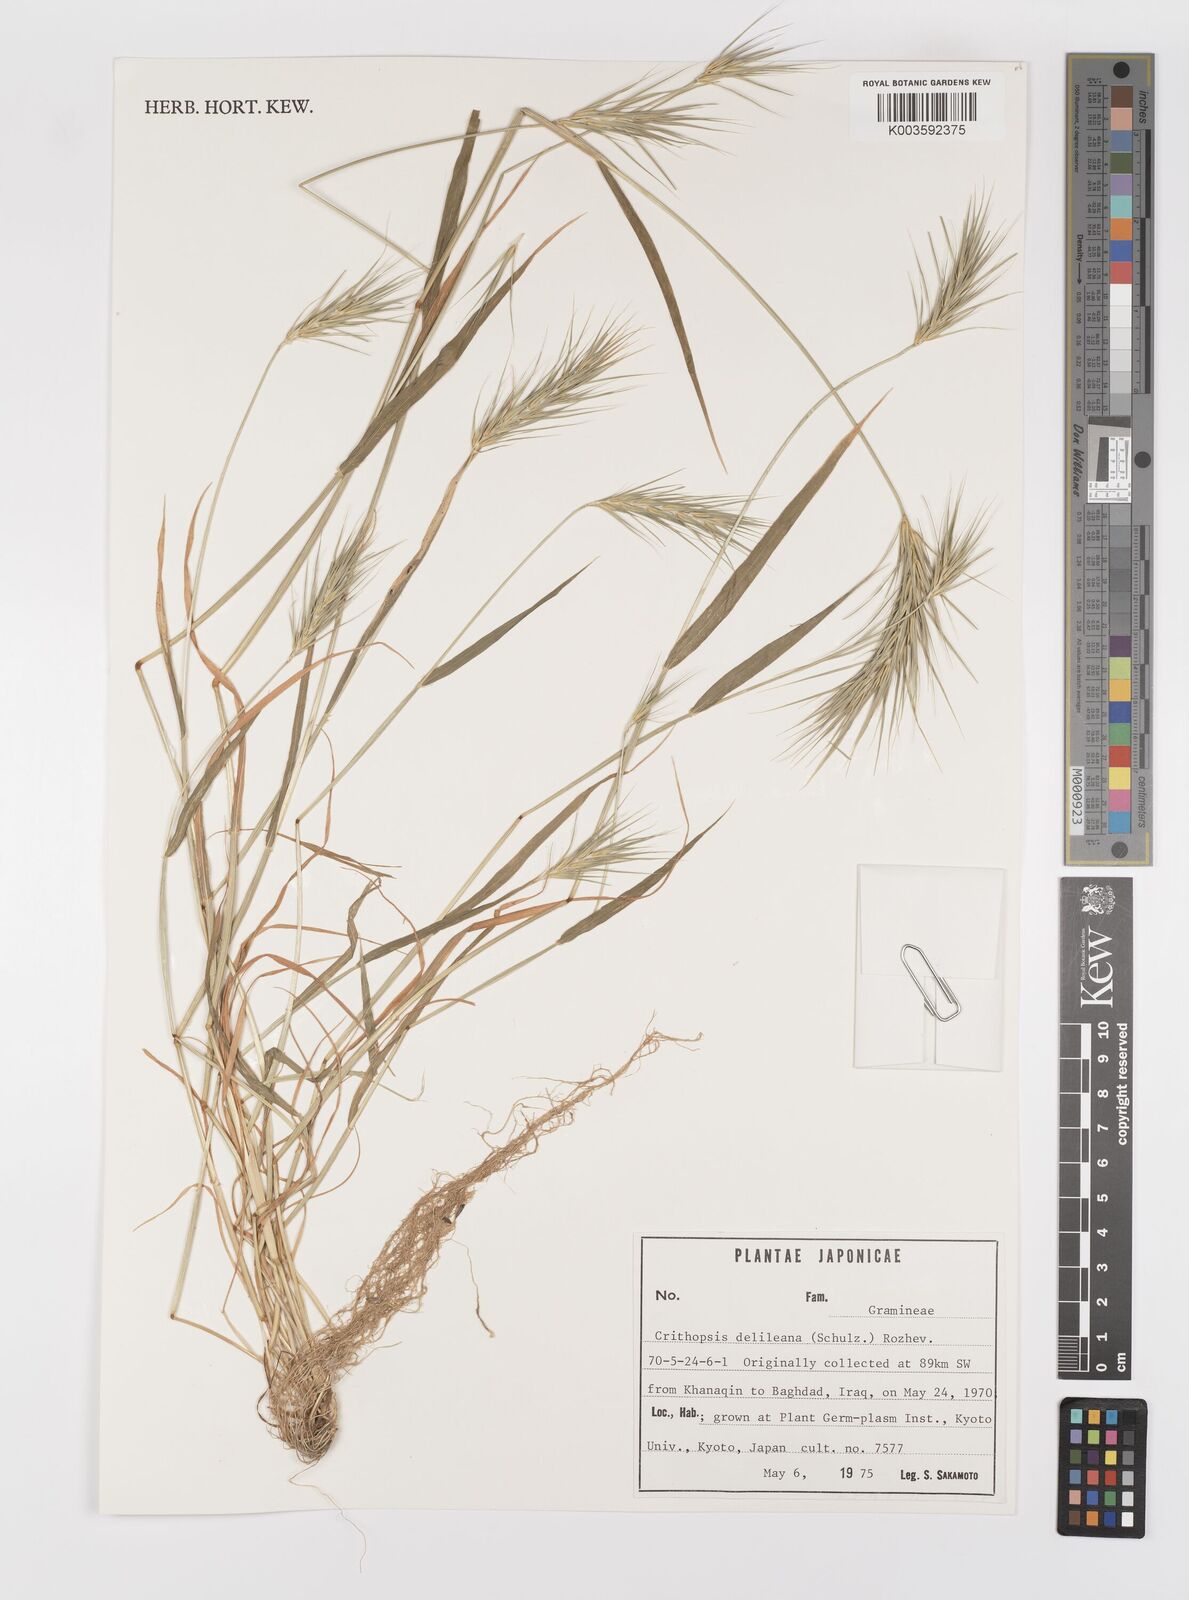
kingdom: Plantae
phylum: Tracheophyta
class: Liliopsida
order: Poales
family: Poaceae
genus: Crithopsis
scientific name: Crithopsis delileana
